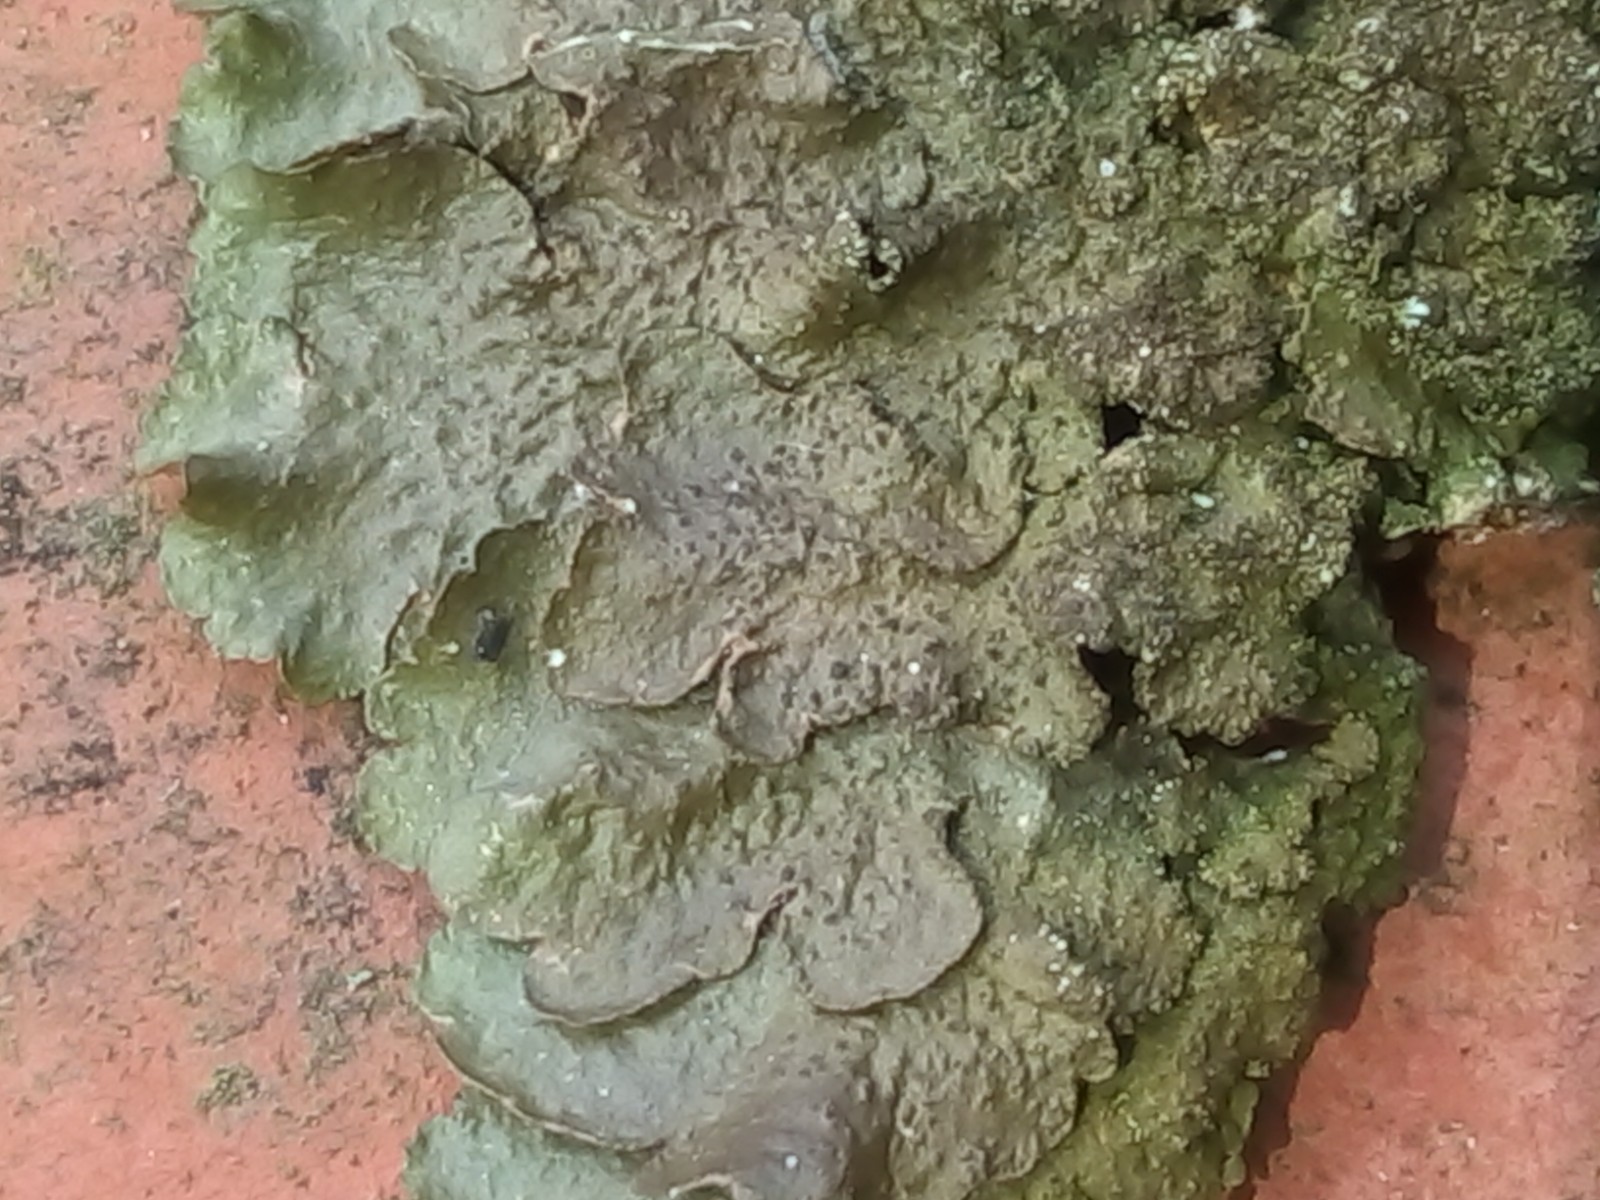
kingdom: Fungi
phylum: Ascomycota
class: Lecanoromycetes
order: Lecanorales
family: Parmeliaceae
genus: Melanelixia
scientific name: Melanelixia subaurifera
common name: guldpudret skållav
